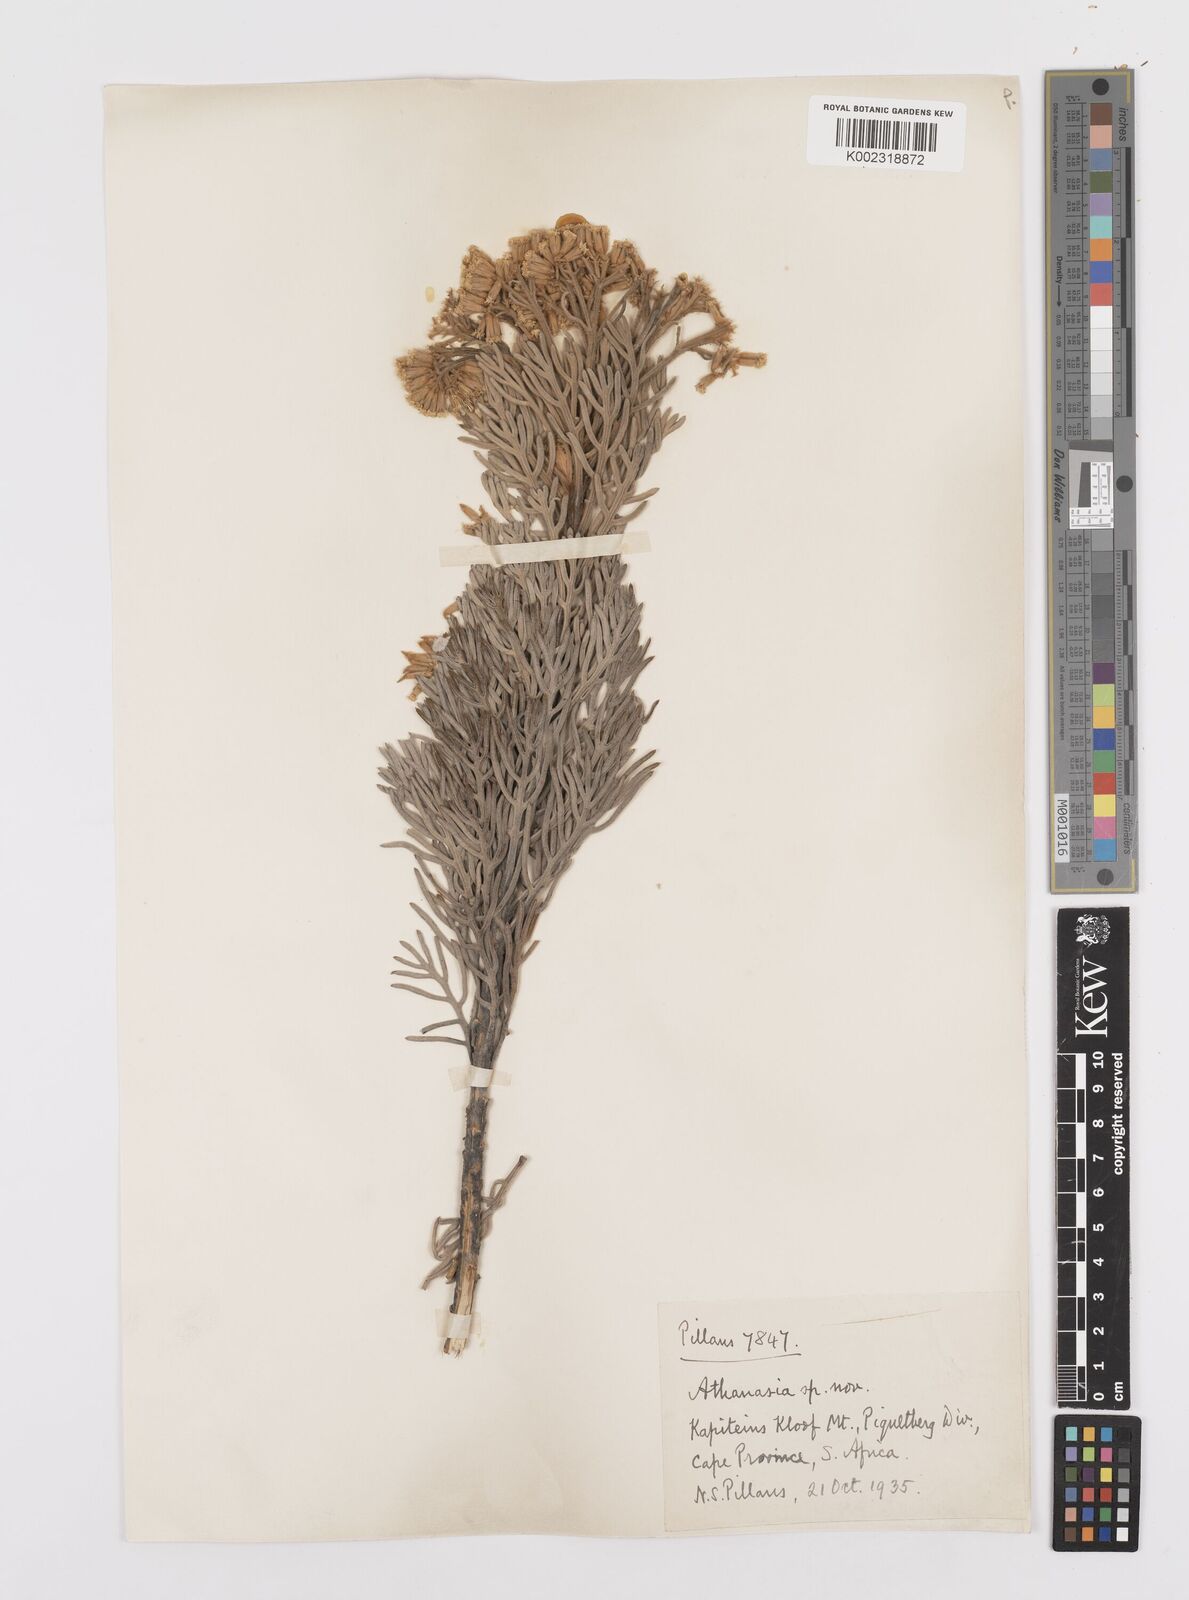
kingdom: Plantae
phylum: Tracheophyta
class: Magnoliopsida
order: Asterales
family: Asteraceae
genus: Hymenolepis
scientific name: Hymenolepis speciosa
